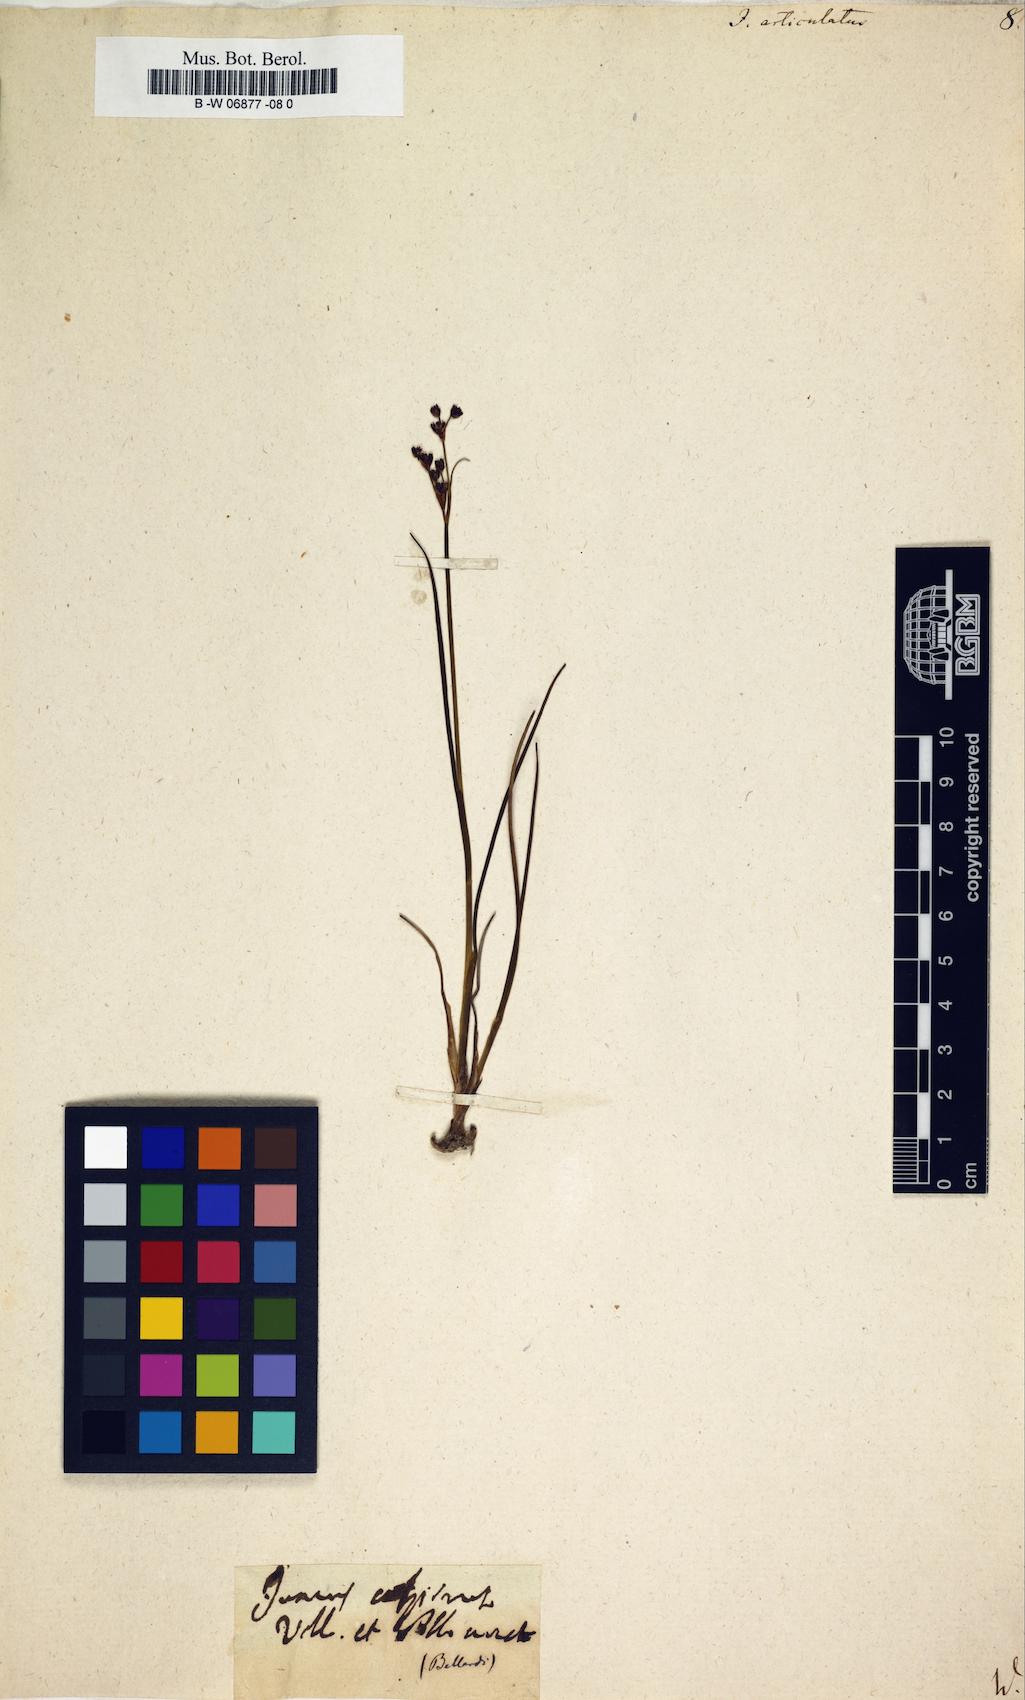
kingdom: Plantae
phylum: Tracheophyta
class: Liliopsida
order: Poales
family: Juncaceae
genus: Juncus
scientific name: Juncus articulatus
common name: Jointed rush
